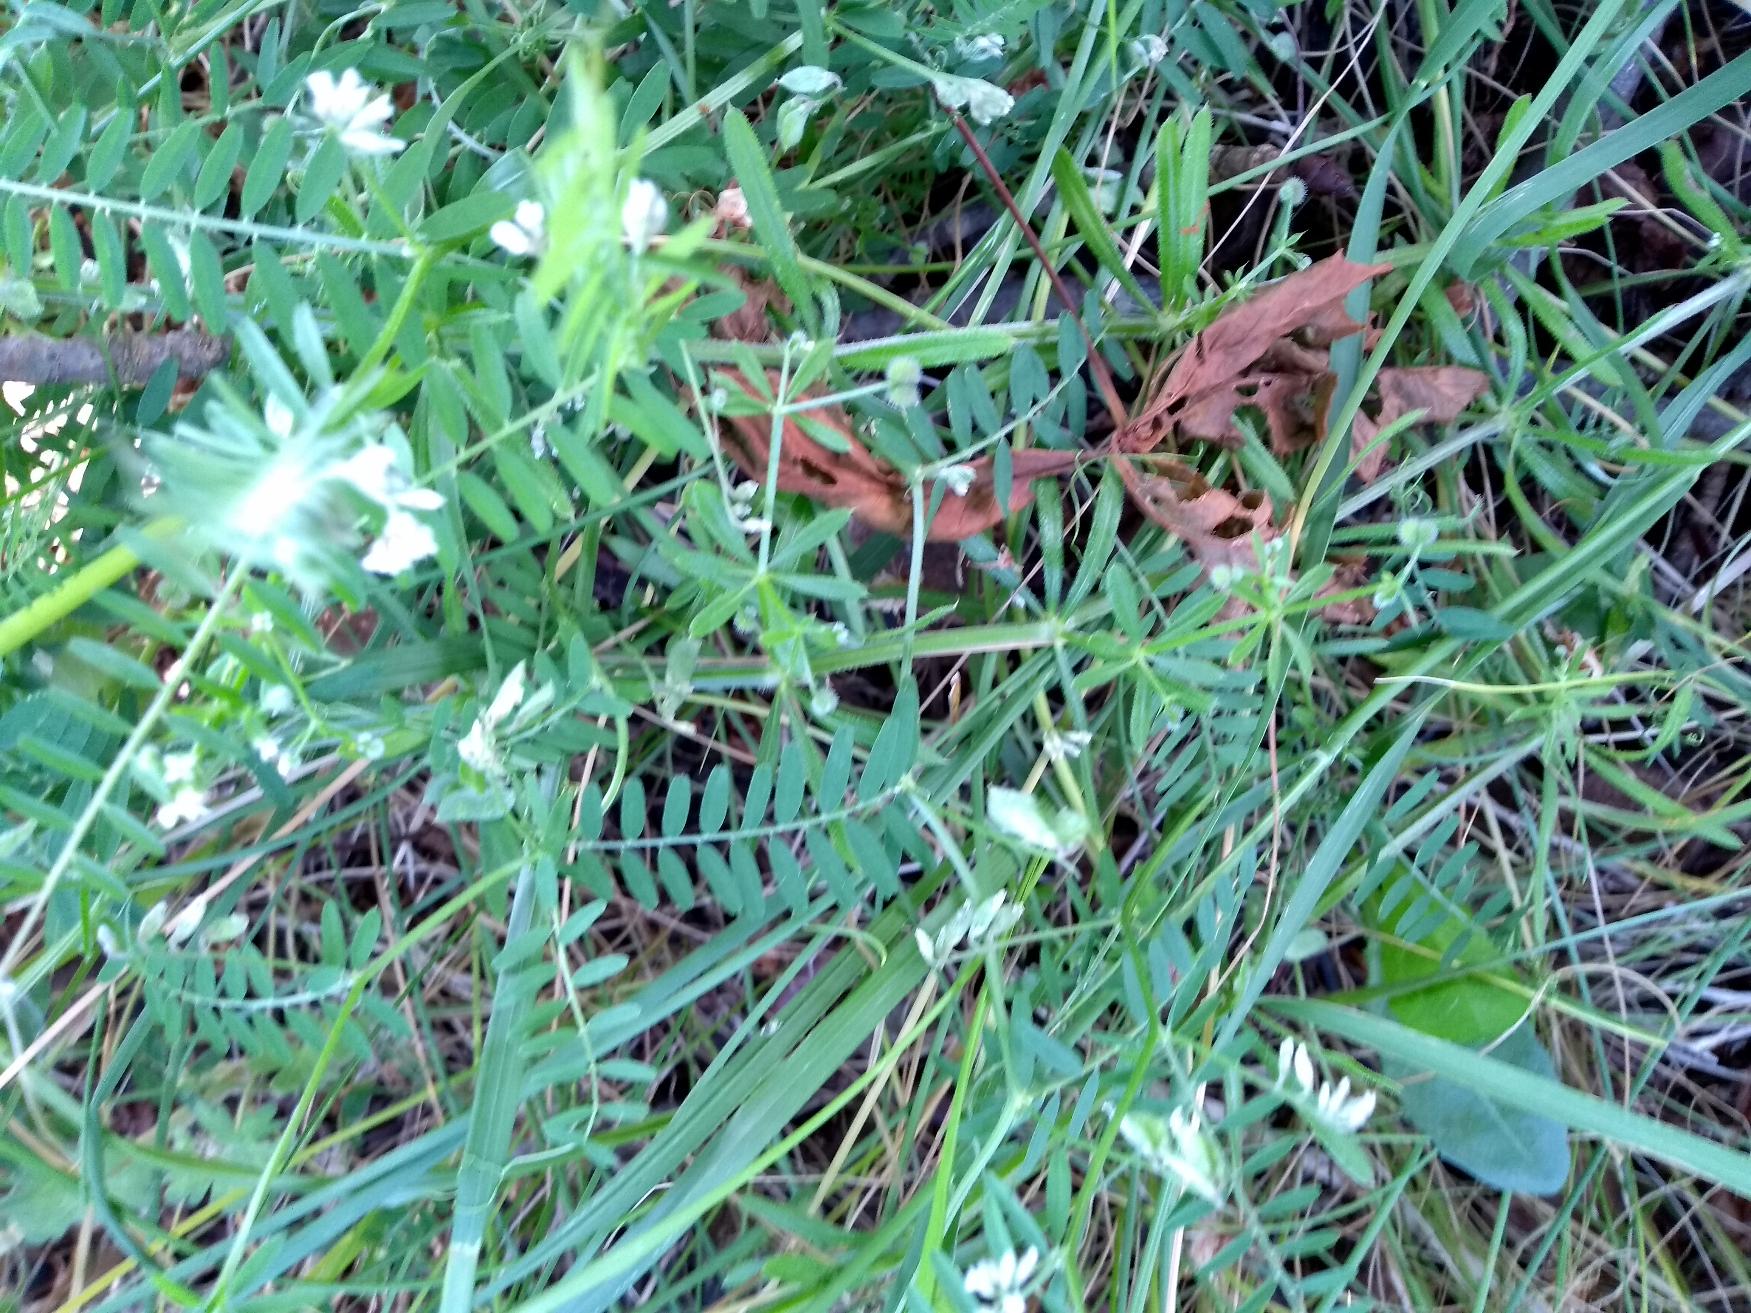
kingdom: Plantae
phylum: Tracheophyta
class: Magnoliopsida
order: Fabales
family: Fabaceae
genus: Vicia
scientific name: Vicia hirsuta
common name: Tofrøet vikke
